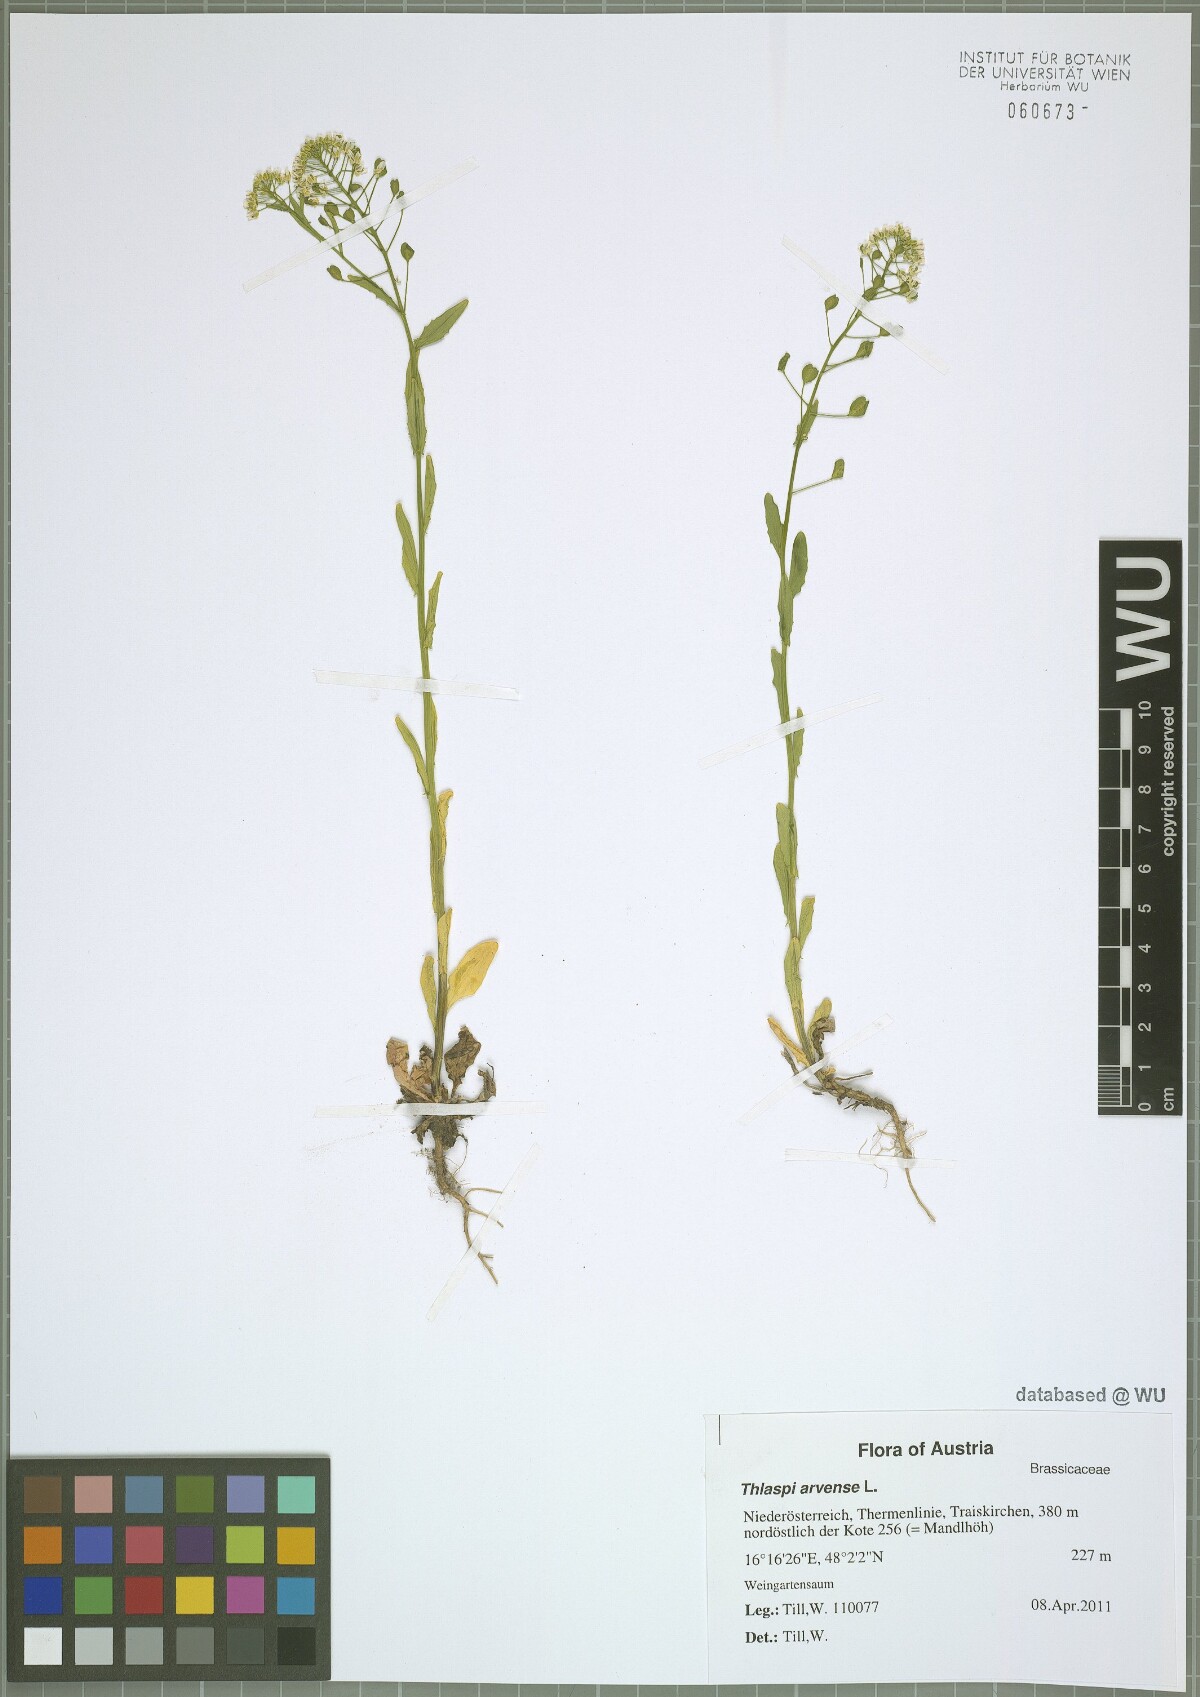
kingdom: Plantae
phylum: Tracheophyta
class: Magnoliopsida
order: Brassicales
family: Brassicaceae
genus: Thlaspi
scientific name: Thlaspi arvense
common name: Field pennycress
